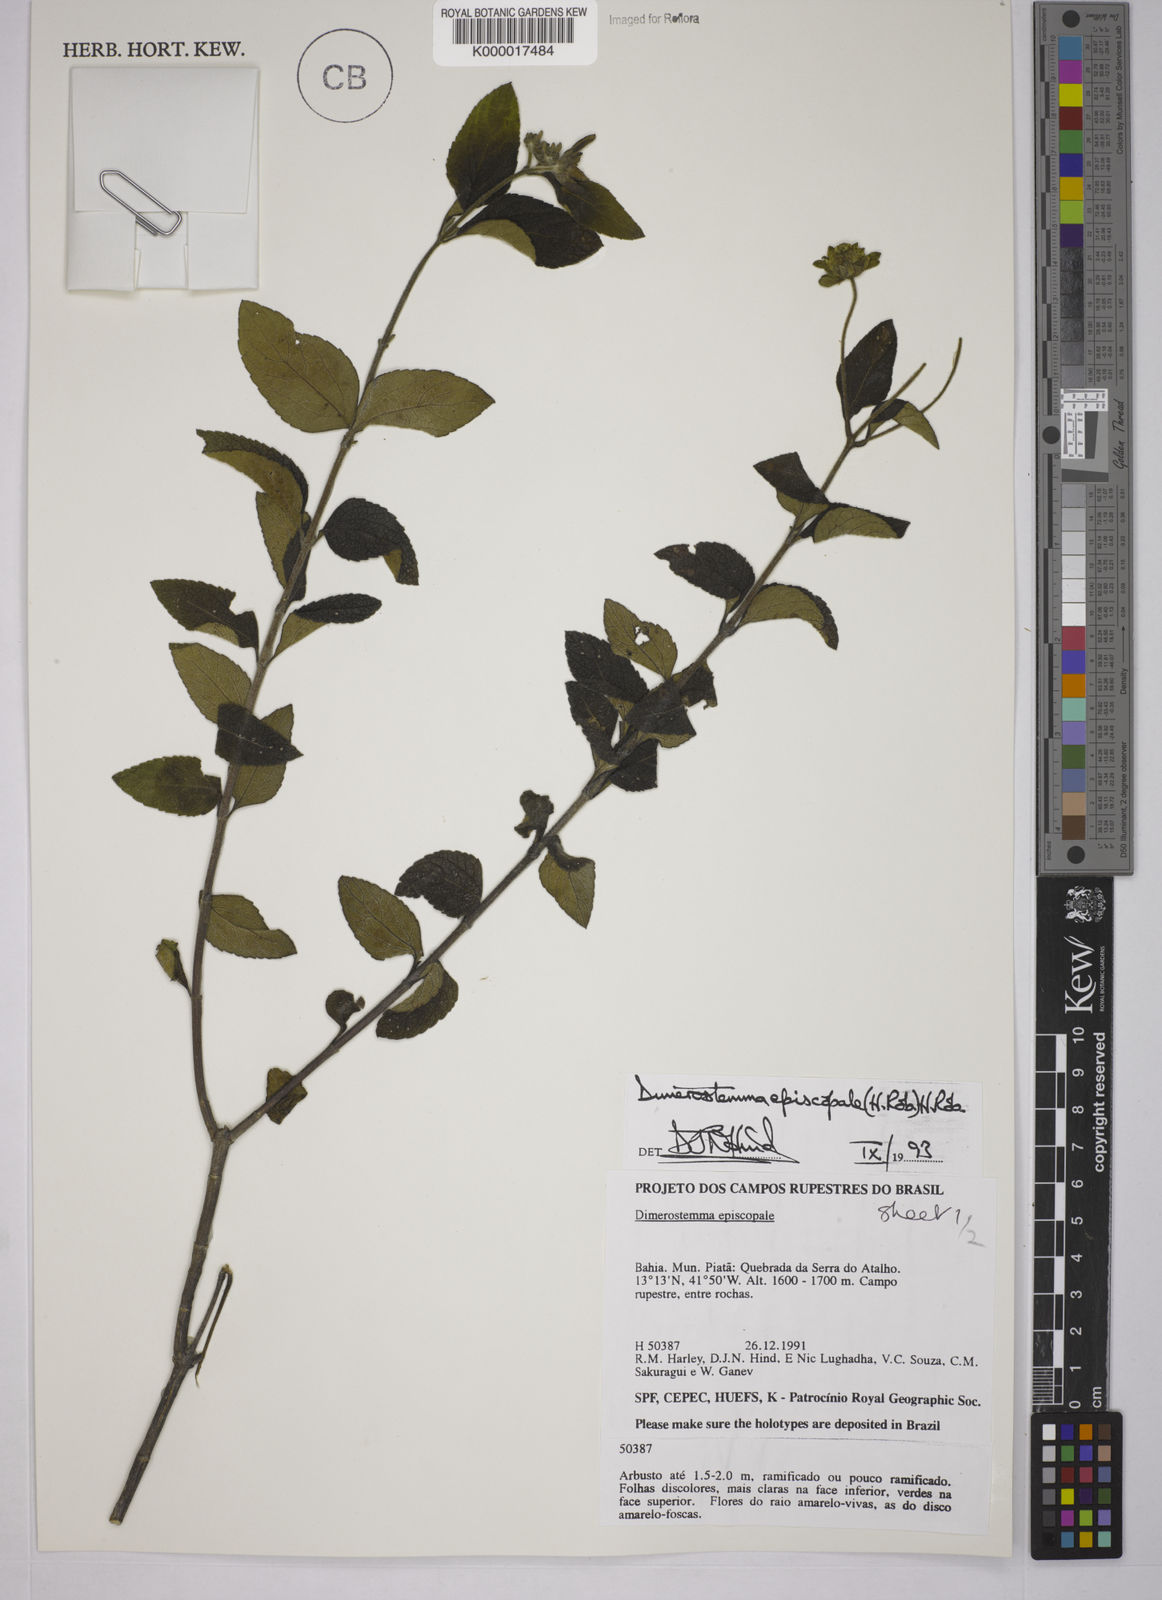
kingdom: Plantae
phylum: Tracheophyta
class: Magnoliopsida
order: Asterales
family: Asteraceae
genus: Dimerostemma
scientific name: Dimerostemma episcopale
